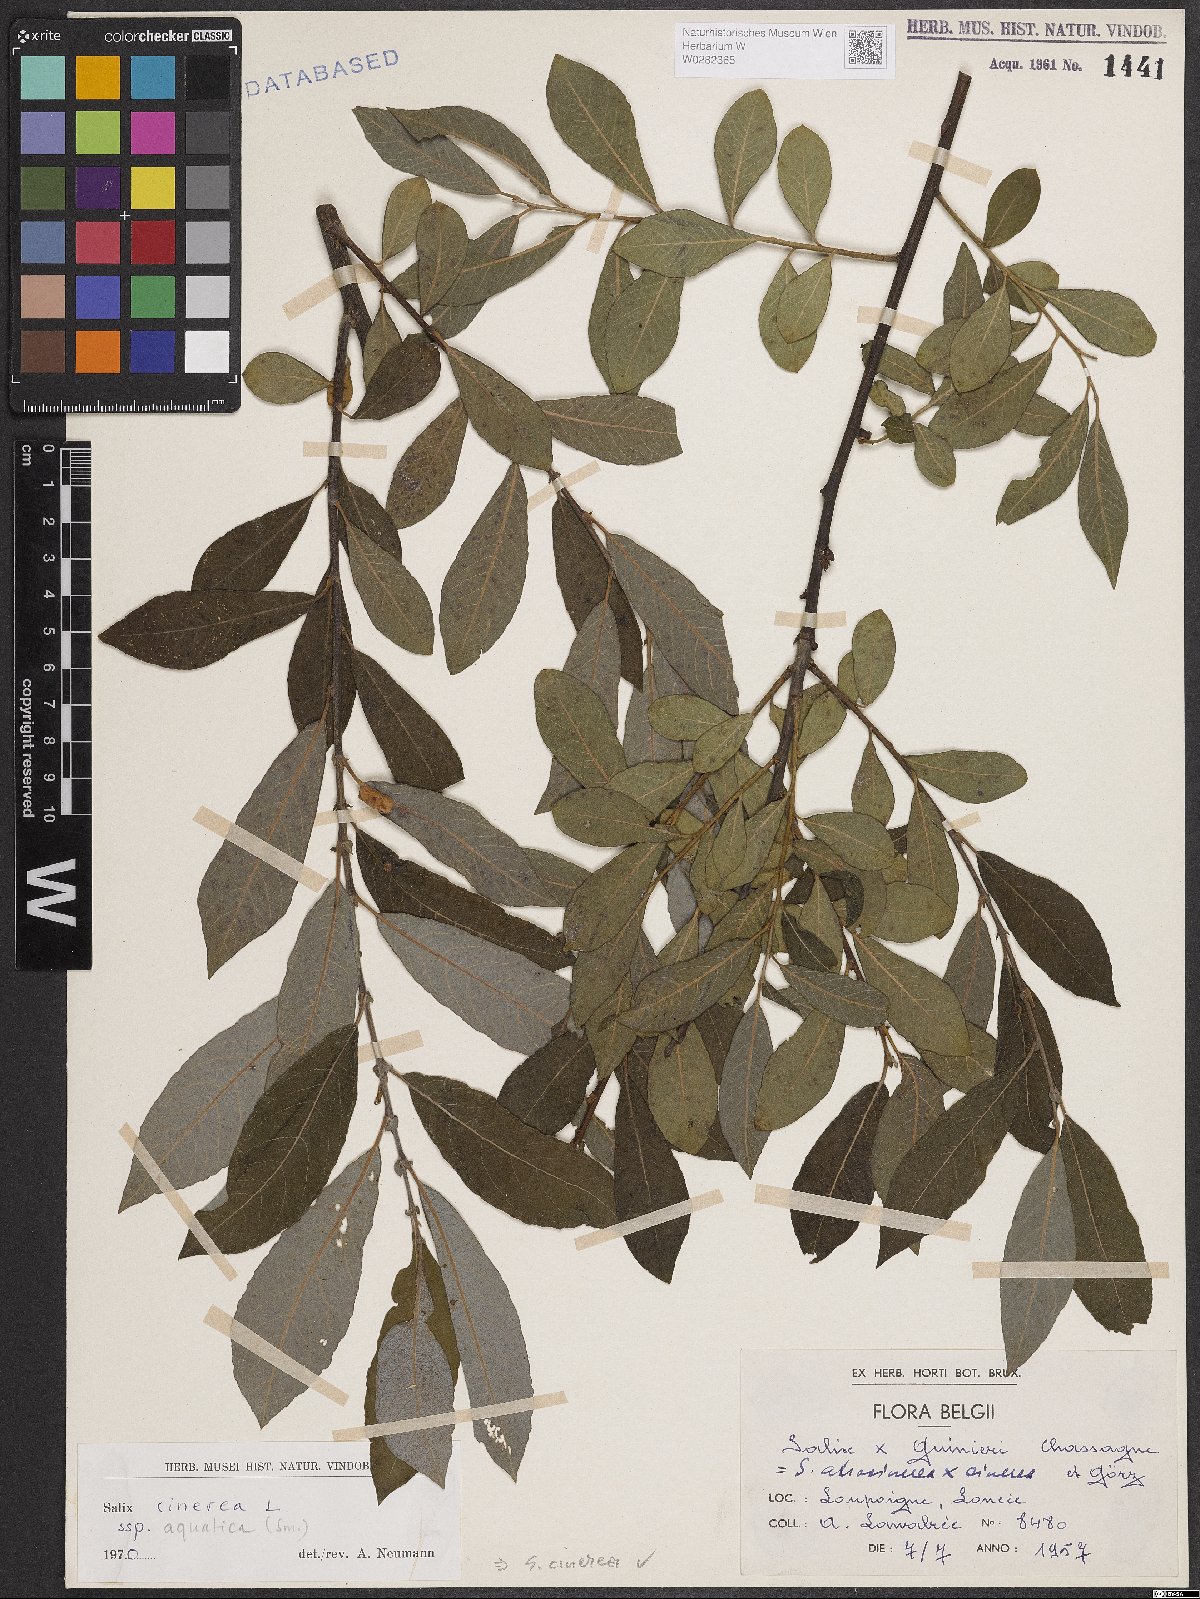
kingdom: Plantae
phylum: Tracheophyta
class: Magnoliopsida
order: Malpighiales
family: Salicaceae
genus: Salix
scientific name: Salix cinerea
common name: Common sallow
